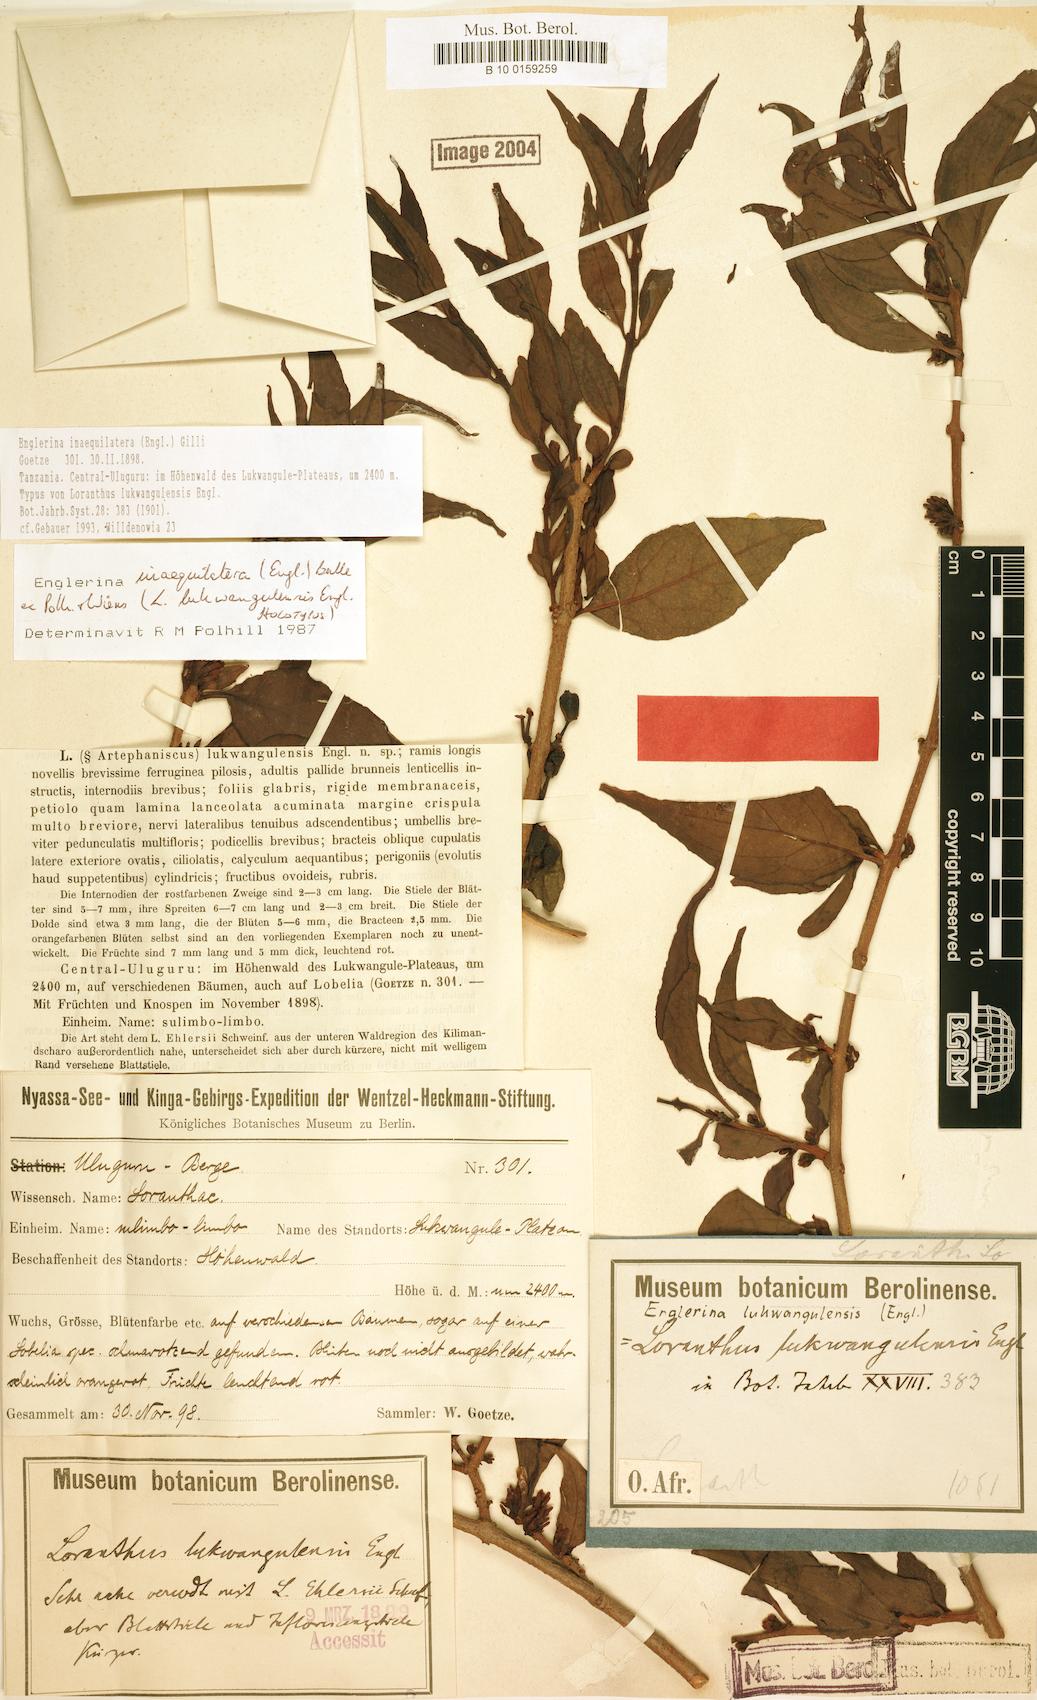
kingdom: Plantae
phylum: Tracheophyta
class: Magnoliopsida
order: Santalales
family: Loranthaceae
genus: Englerina
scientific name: Englerina inaequilatera
